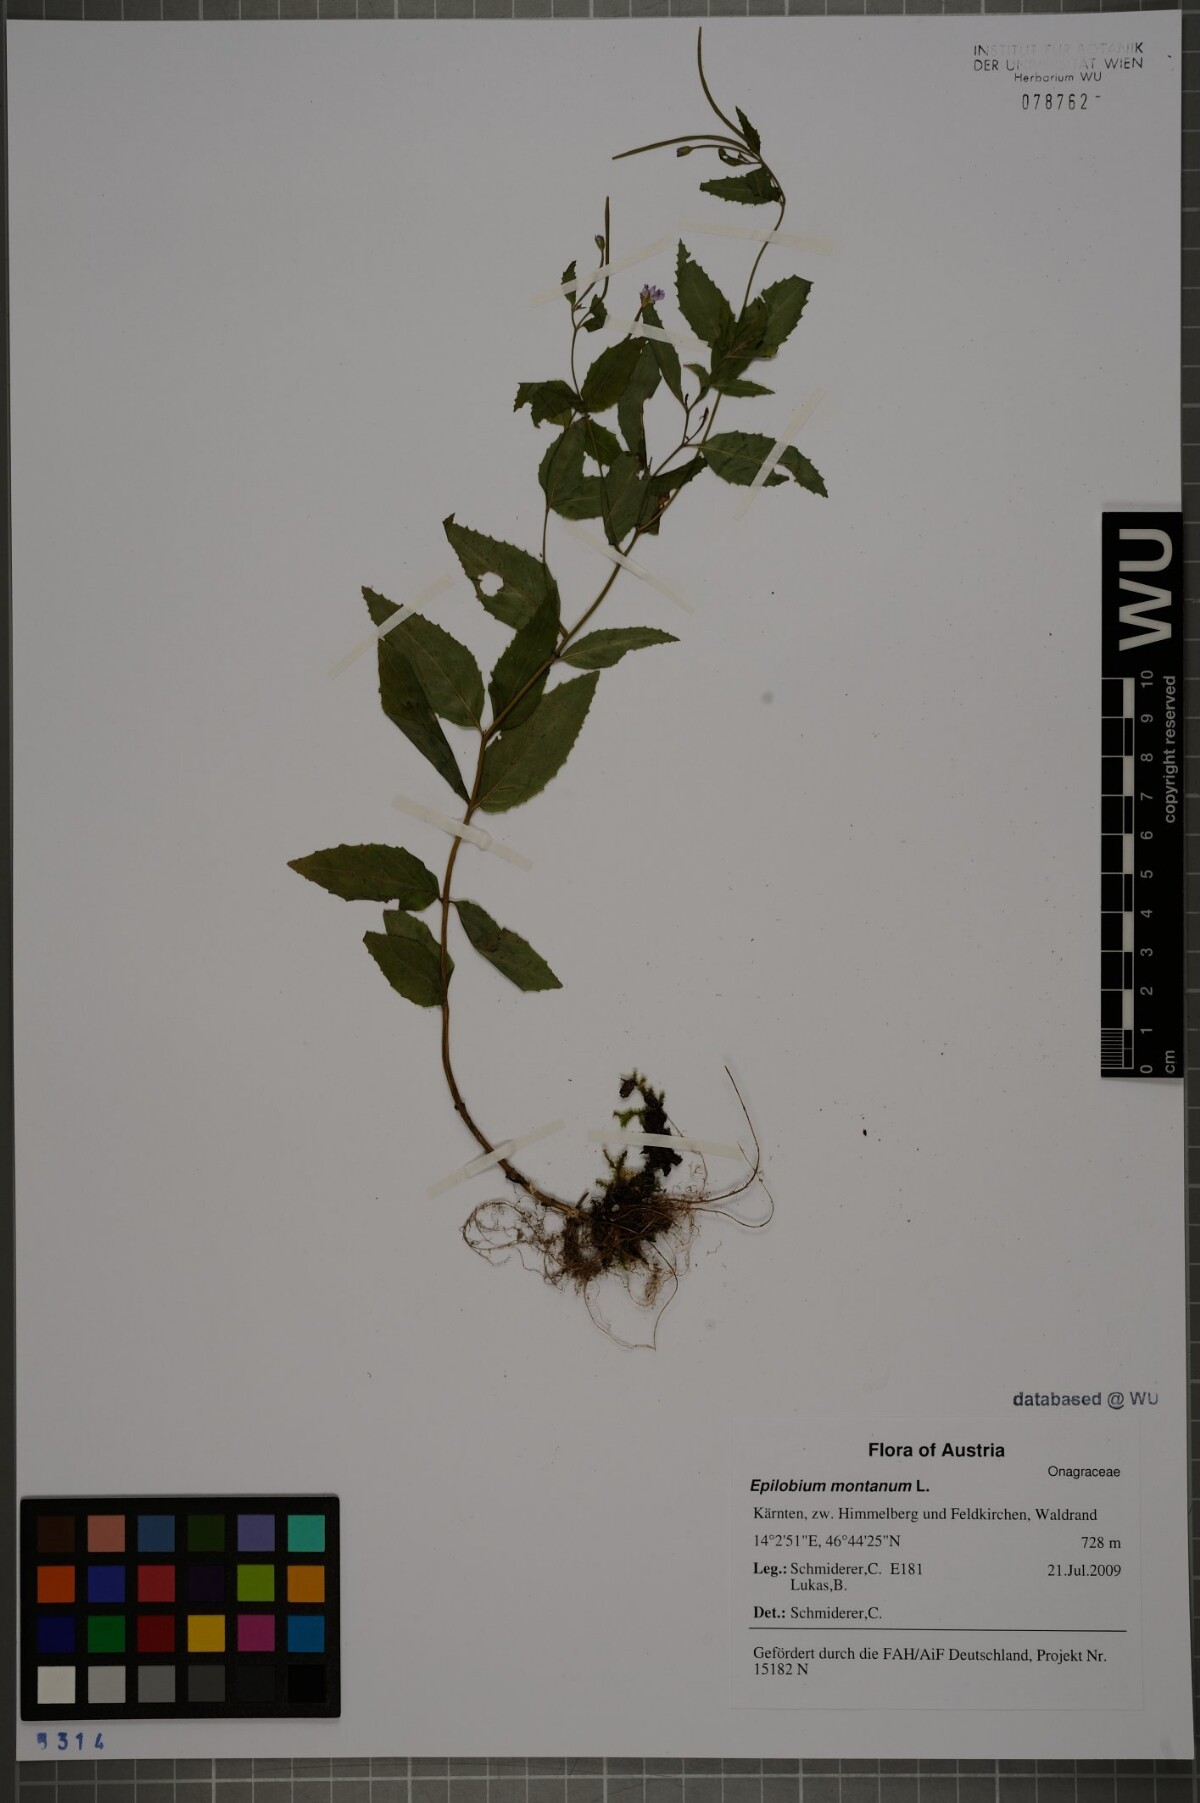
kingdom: Plantae
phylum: Tracheophyta
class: Magnoliopsida
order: Myrtales
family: Onagraceae
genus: Epilobium
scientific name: Epilobium montanum
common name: Broad-leaved willowherb
